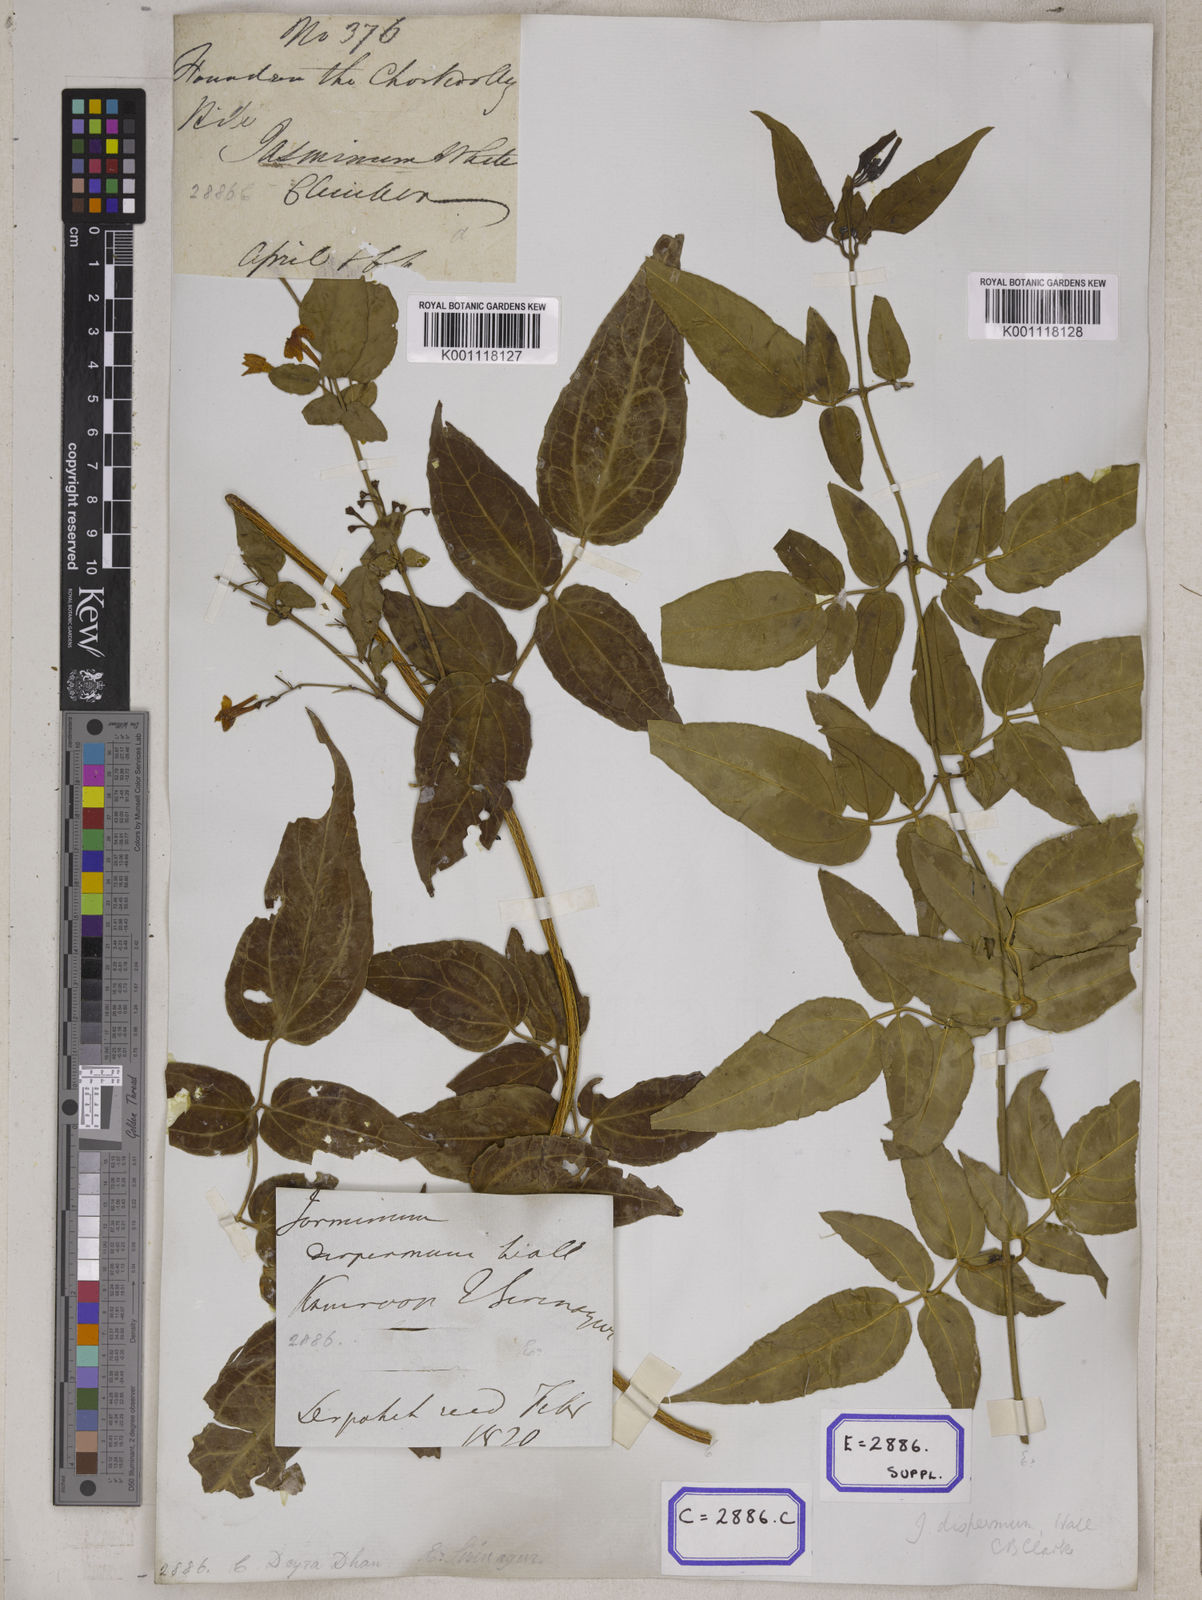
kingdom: Plantae
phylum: Tracheophyta
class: Magnoliopsida
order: Lamiales
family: Oleaceae
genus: Jasminum
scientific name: Jasminum dispermum
